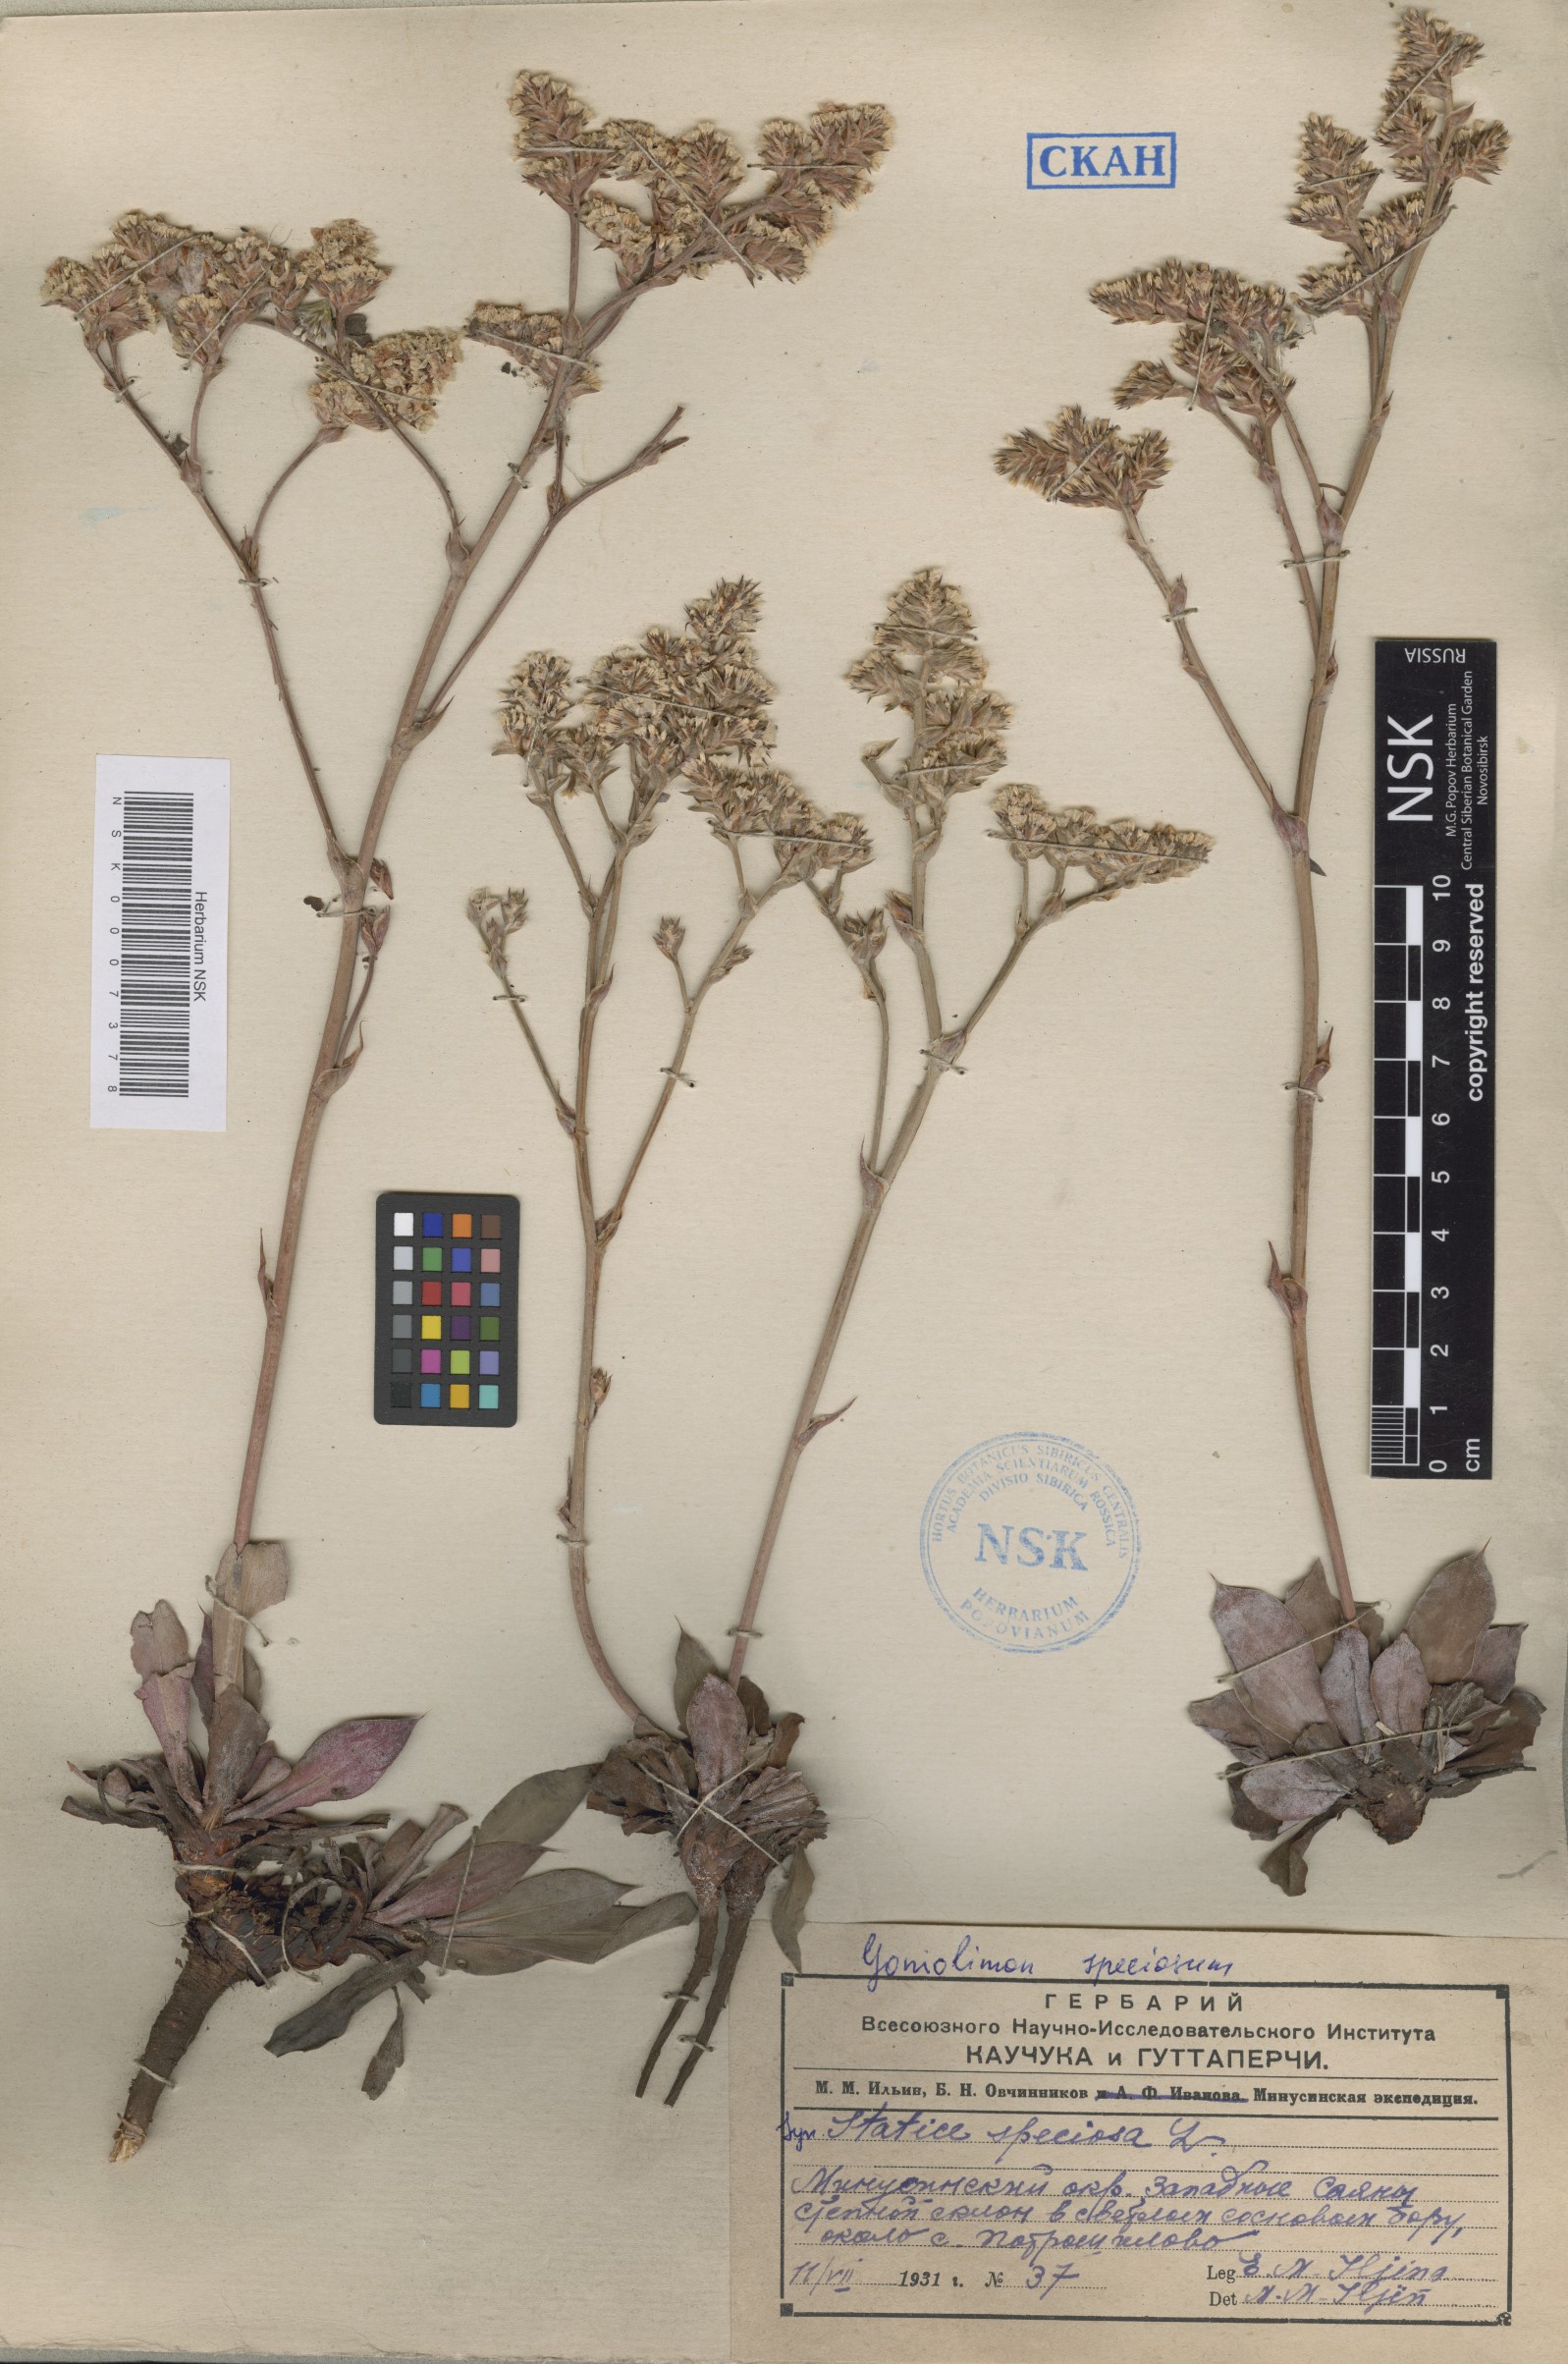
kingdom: Plantae
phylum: Tracheophyta
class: Magnoliopsida
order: Caryophyllales
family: Plumbaginaceae
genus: Goniolimon
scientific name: Goniolimon speciosum
